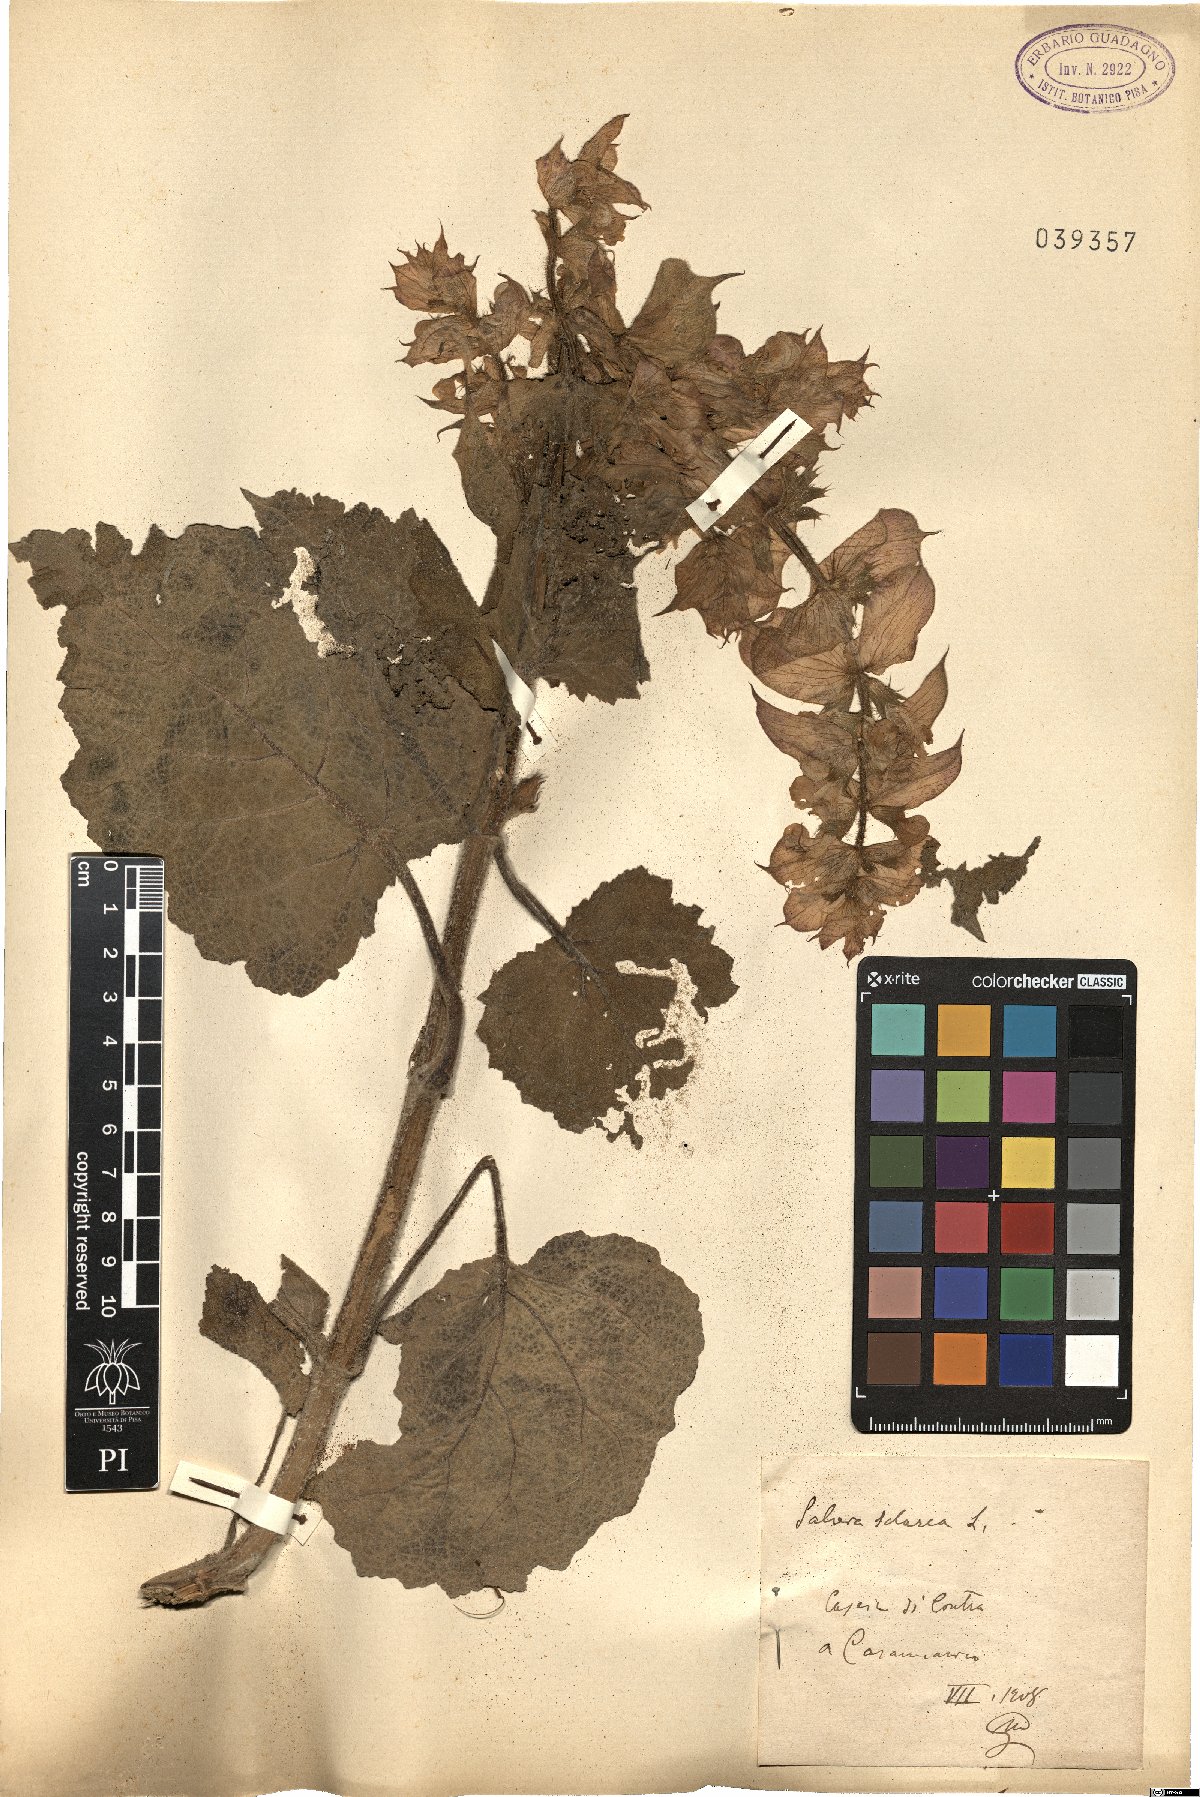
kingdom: Plantae
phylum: Tracheophyta
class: Magnoliopsida
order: Lamiales
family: Lamiaceae
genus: Salvia
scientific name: Salvia sclarea
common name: Clary
